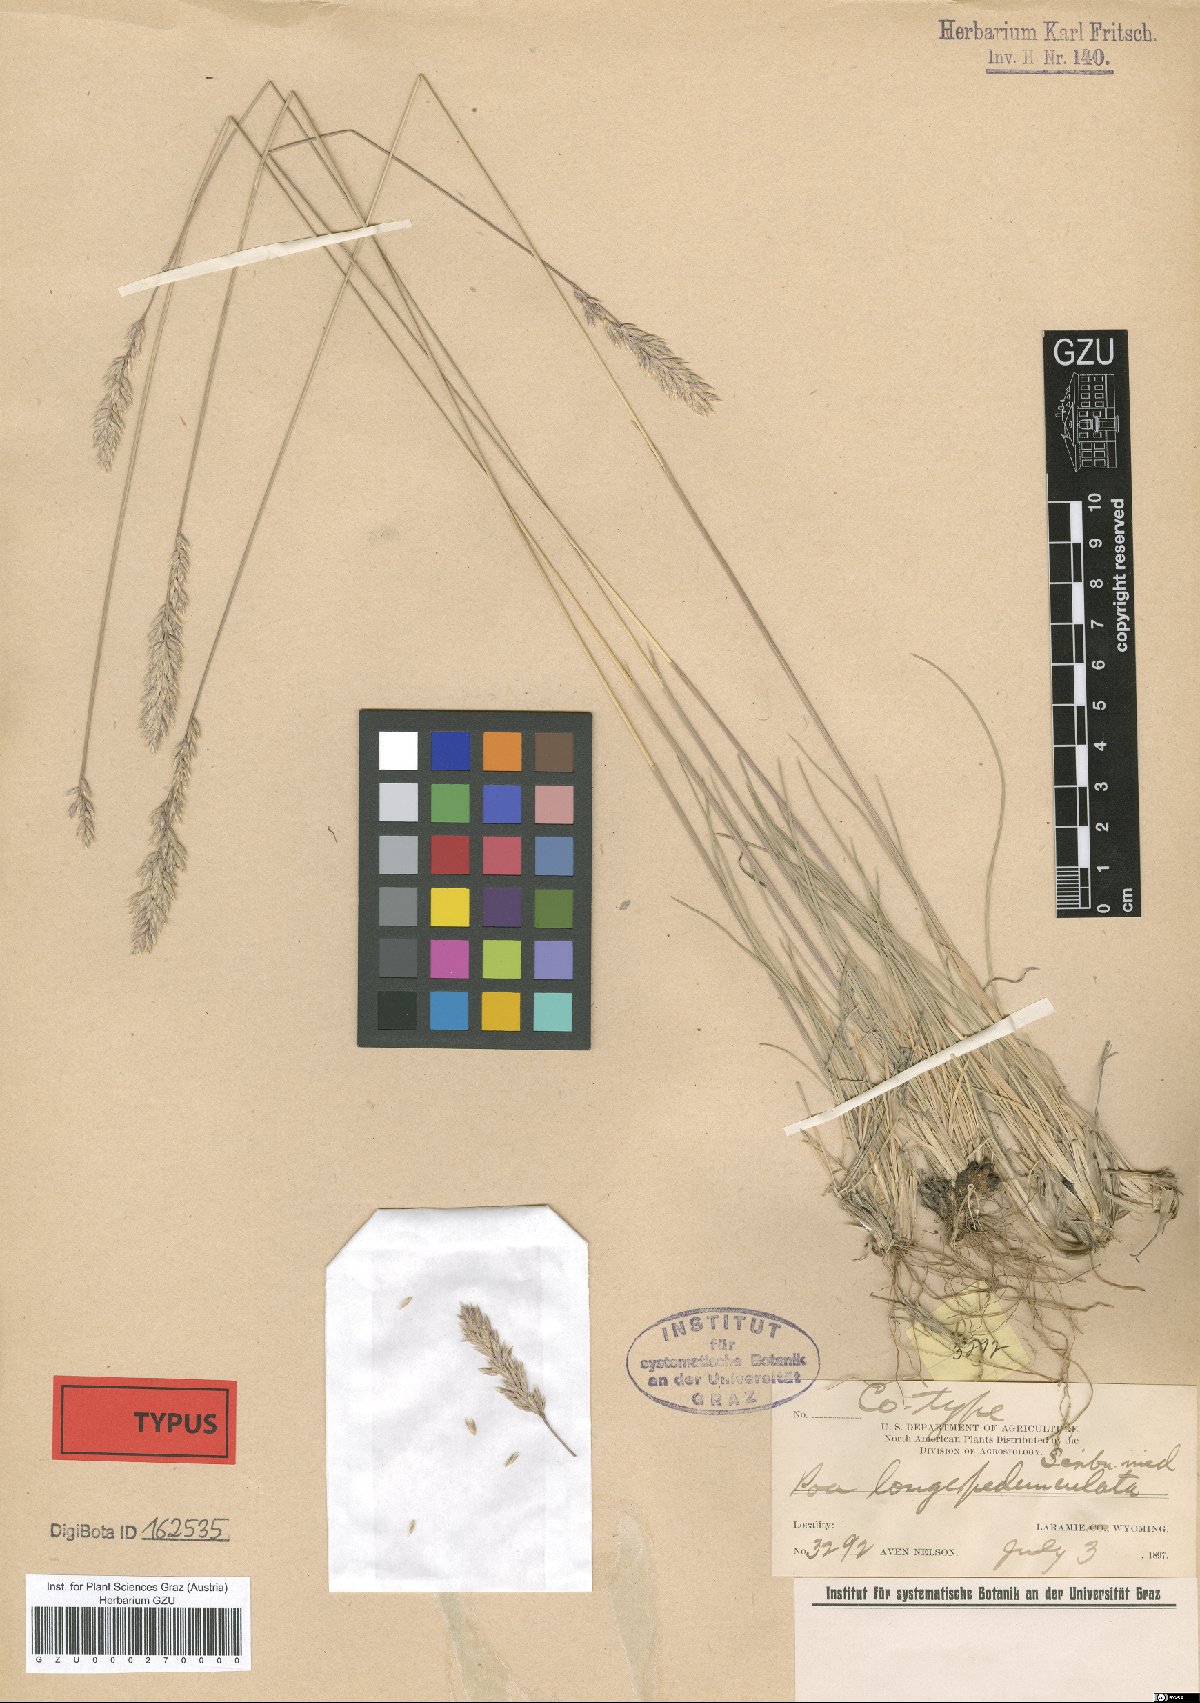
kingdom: Plantae
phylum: Tracheophyta
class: Liliopsida
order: Poales
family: Poaceae
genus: Poa
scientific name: Poa fendleriana
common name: Mutton bluegrass
